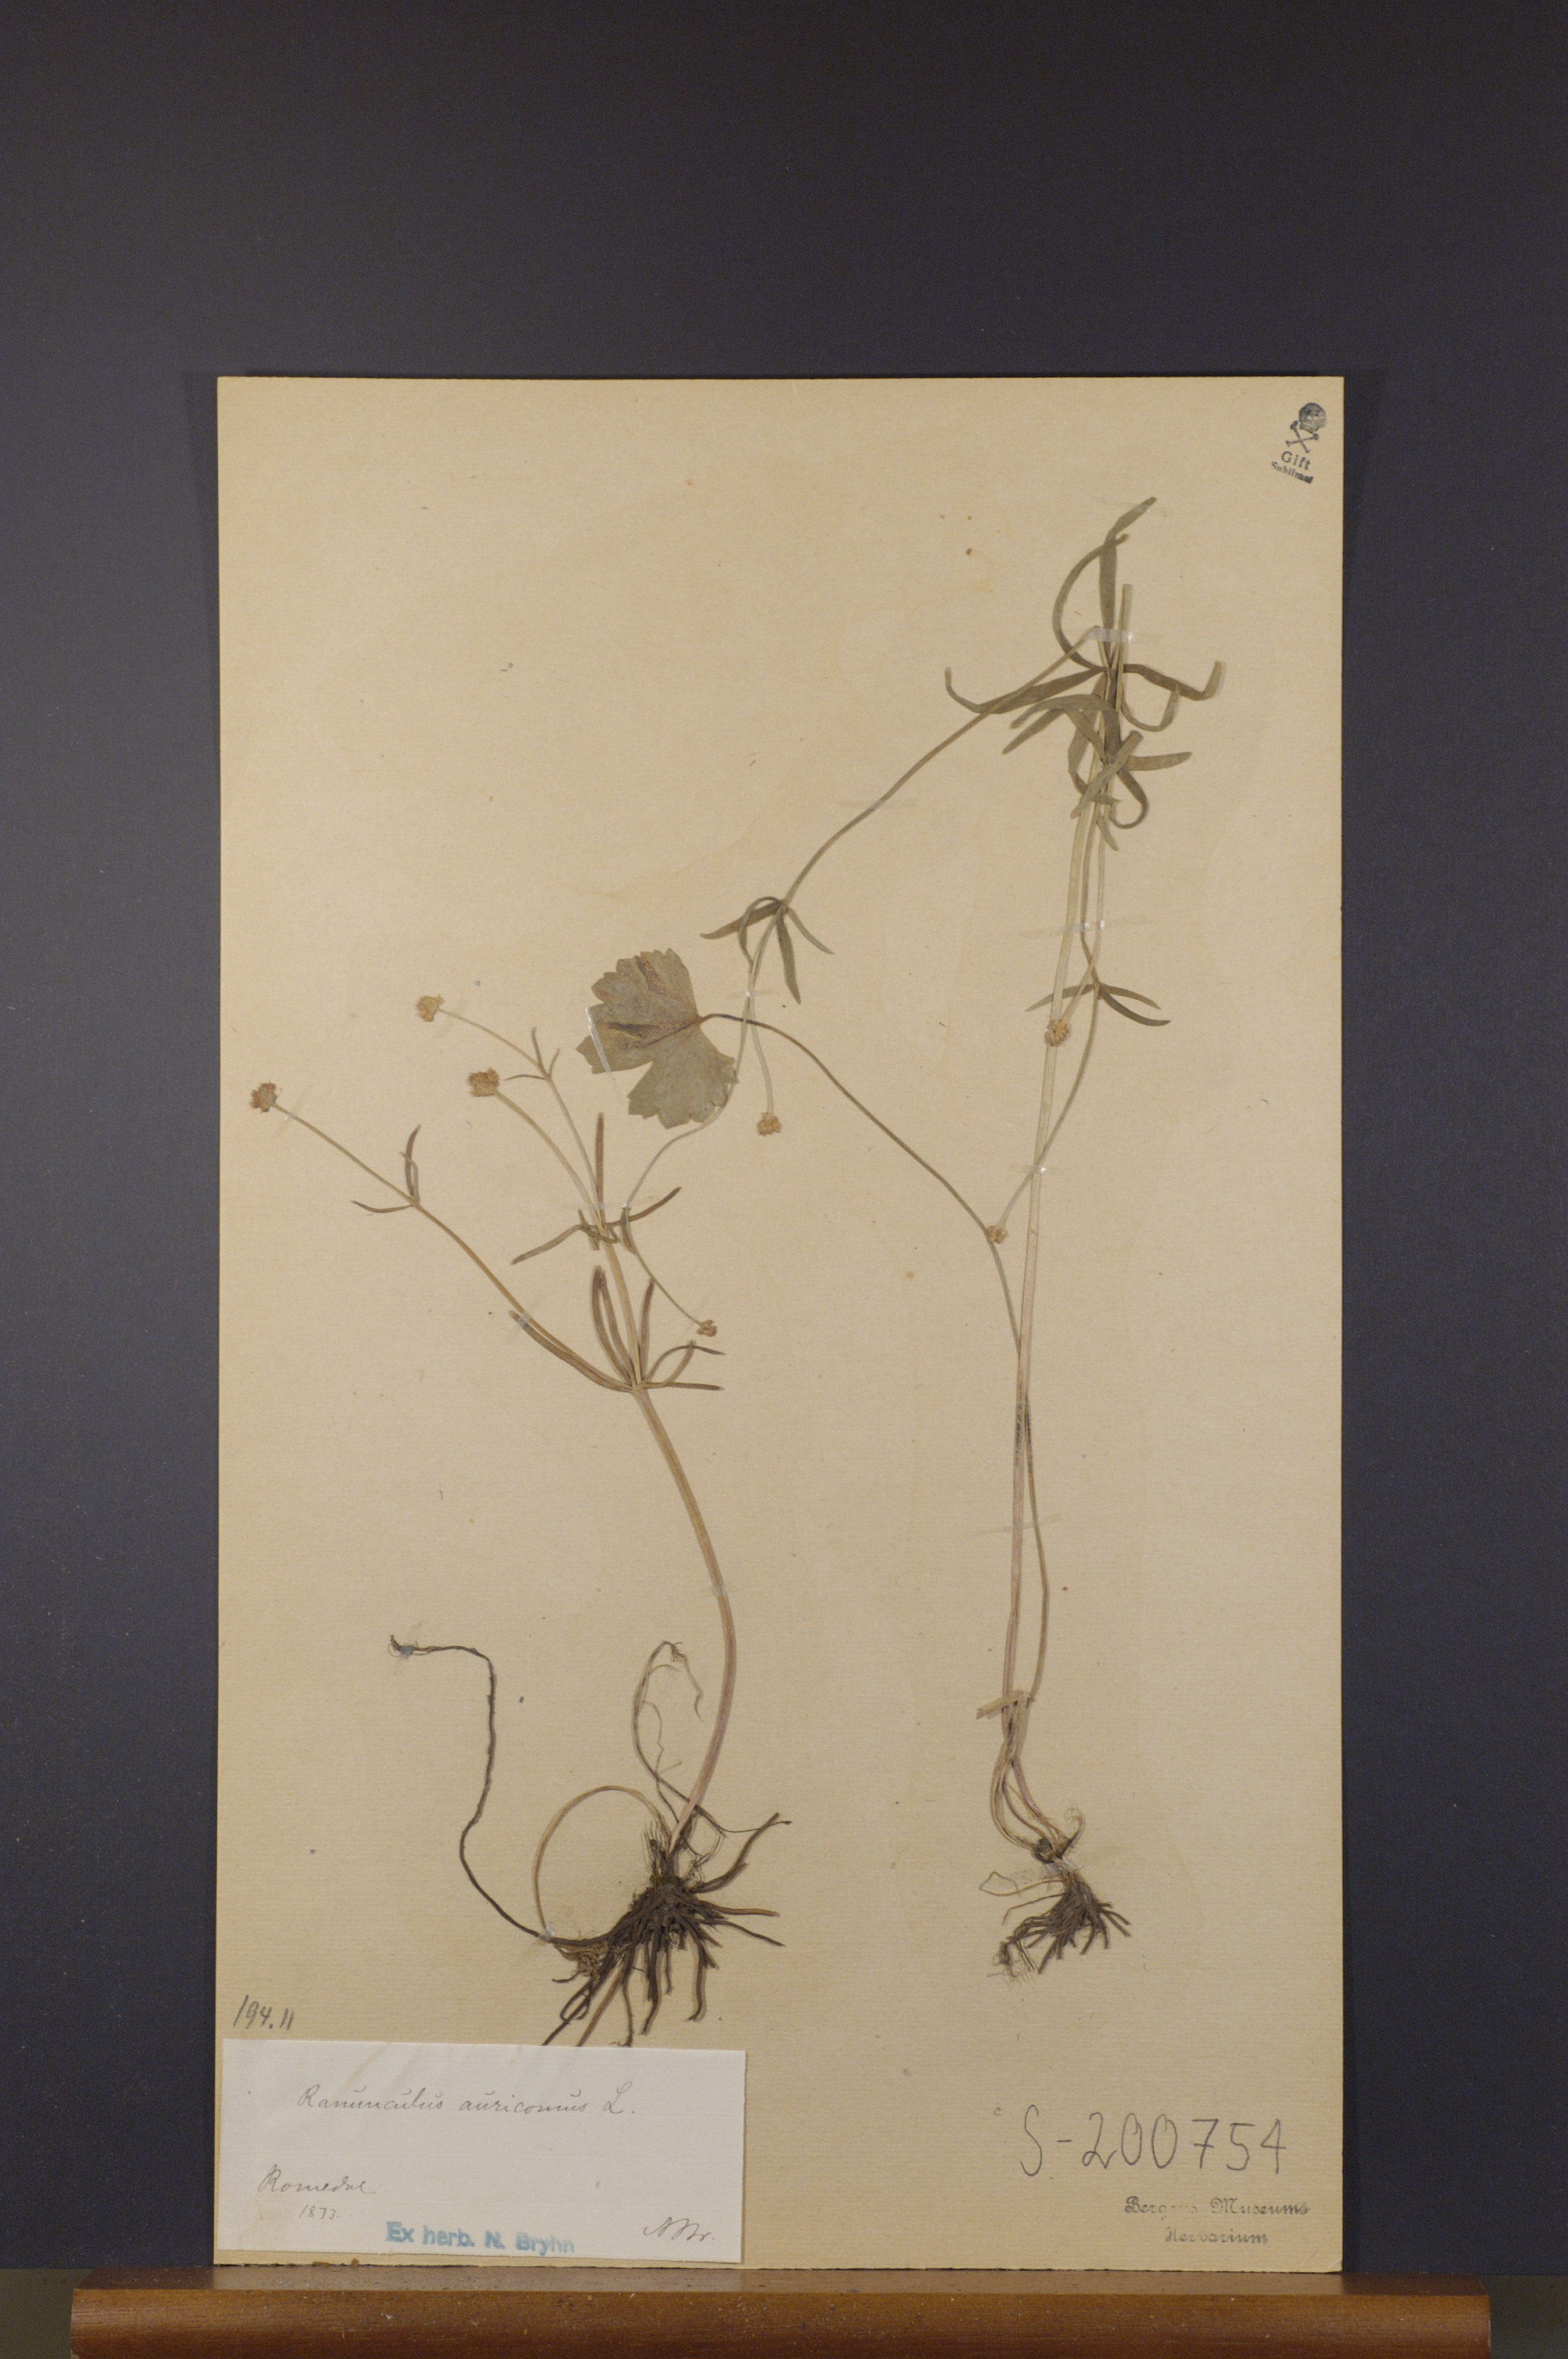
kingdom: Plantae
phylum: Tracheophyta
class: Magnoliopsida
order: Ranunculales
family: Ranunculaceae
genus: Ranunculus
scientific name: Ranunculus auricomus
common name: Goldilocks buttercup
